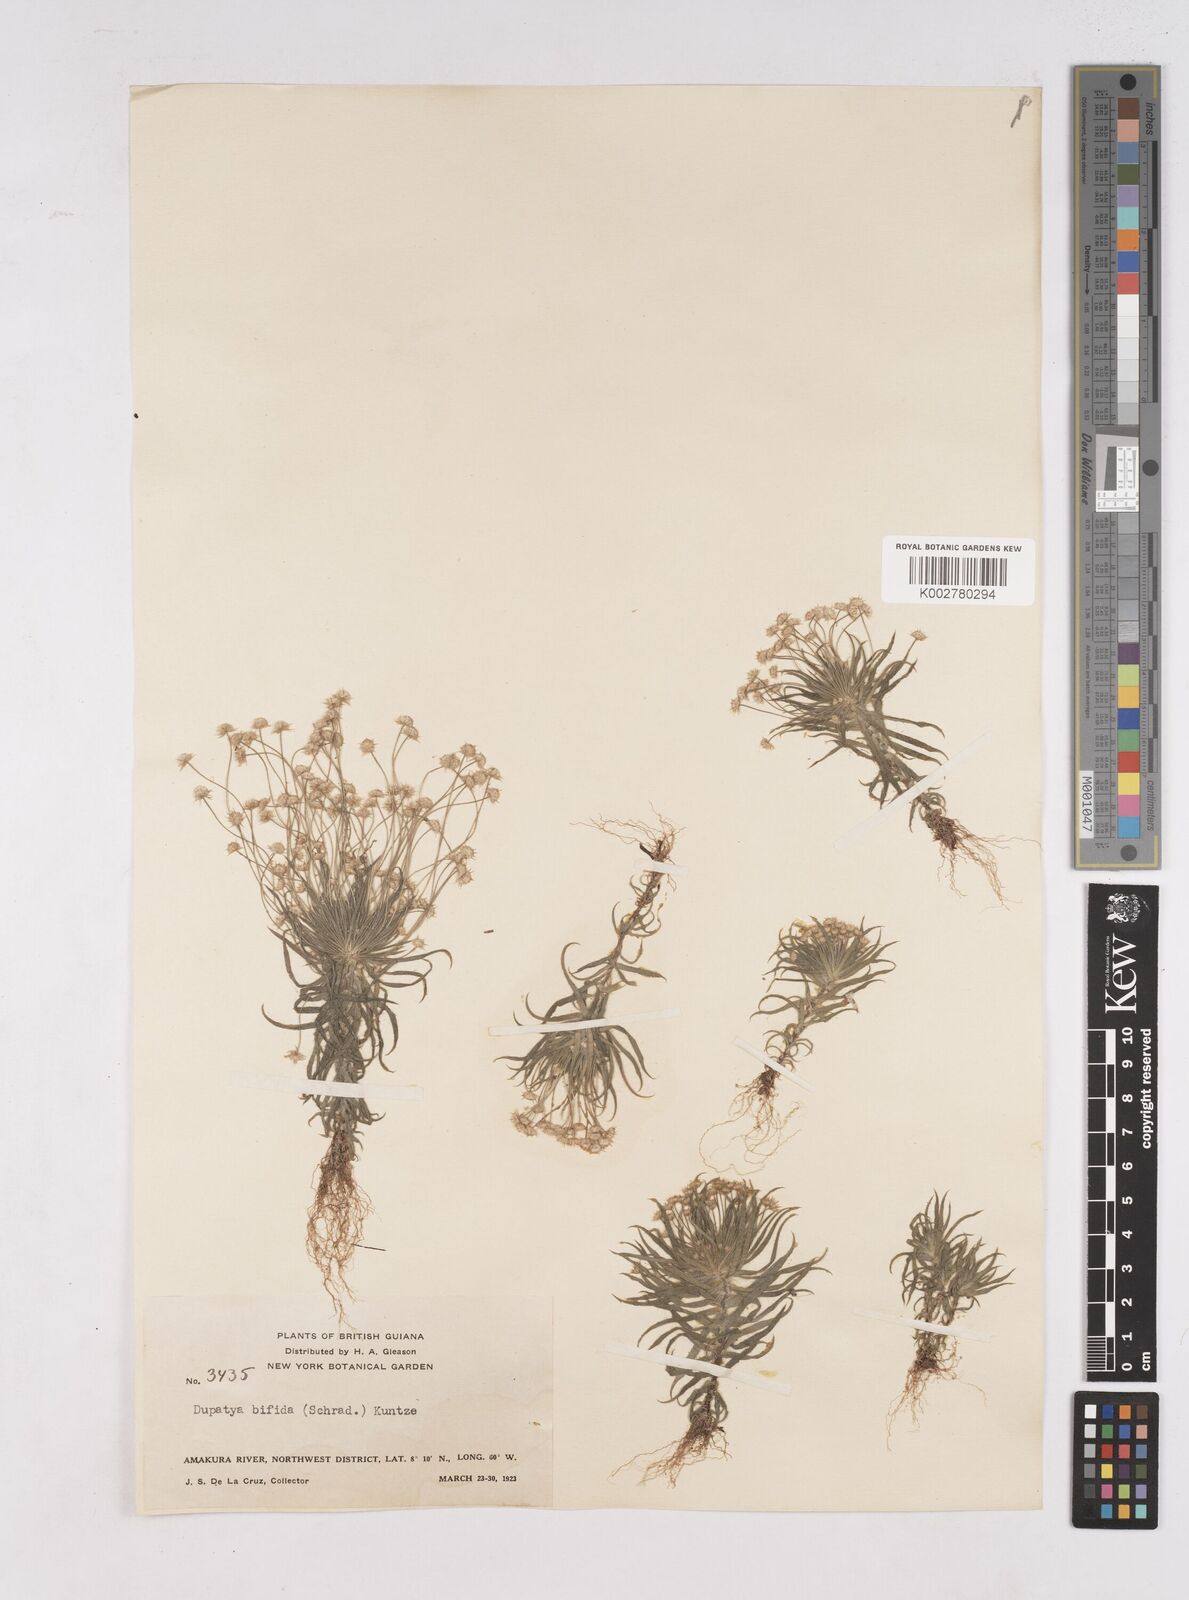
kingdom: Plantae
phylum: Tracheophyta
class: Liliopsida
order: Poales
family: Eriocaulaceae
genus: Paepalanthus
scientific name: Paepalanthus bifidus
